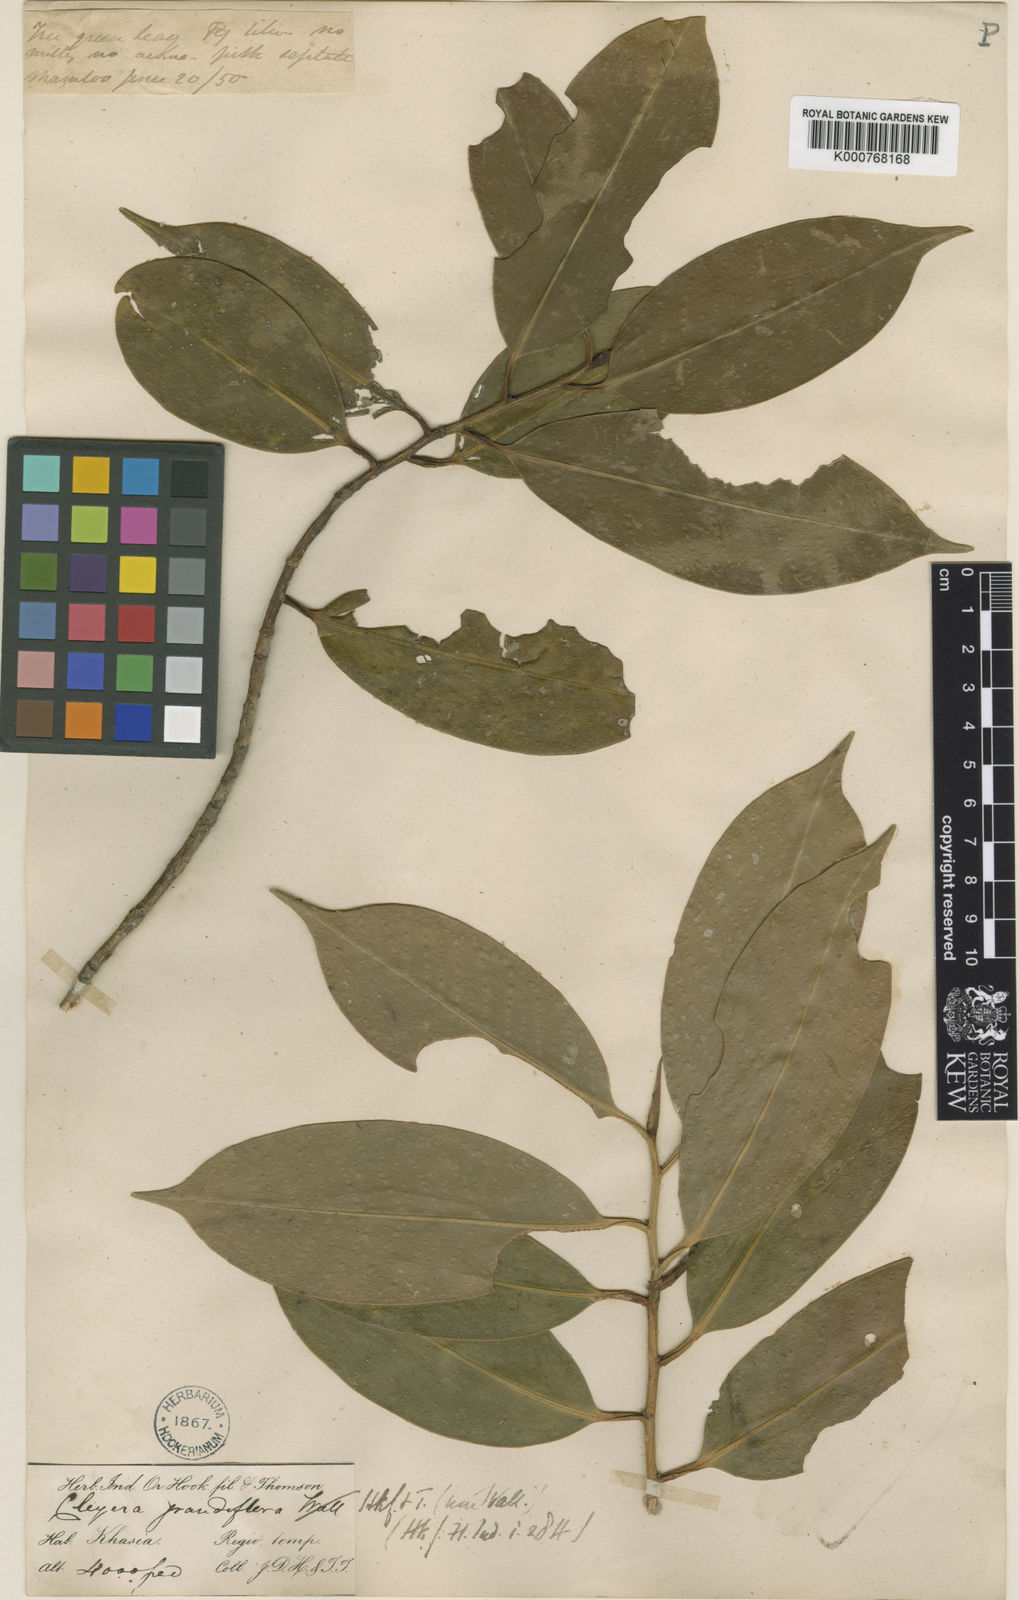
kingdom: Plantae
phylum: Tracheophyta
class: Magnoliopsida
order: Ericales
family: Pentaphylacaceae
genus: Cleyera
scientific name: Cleyera
